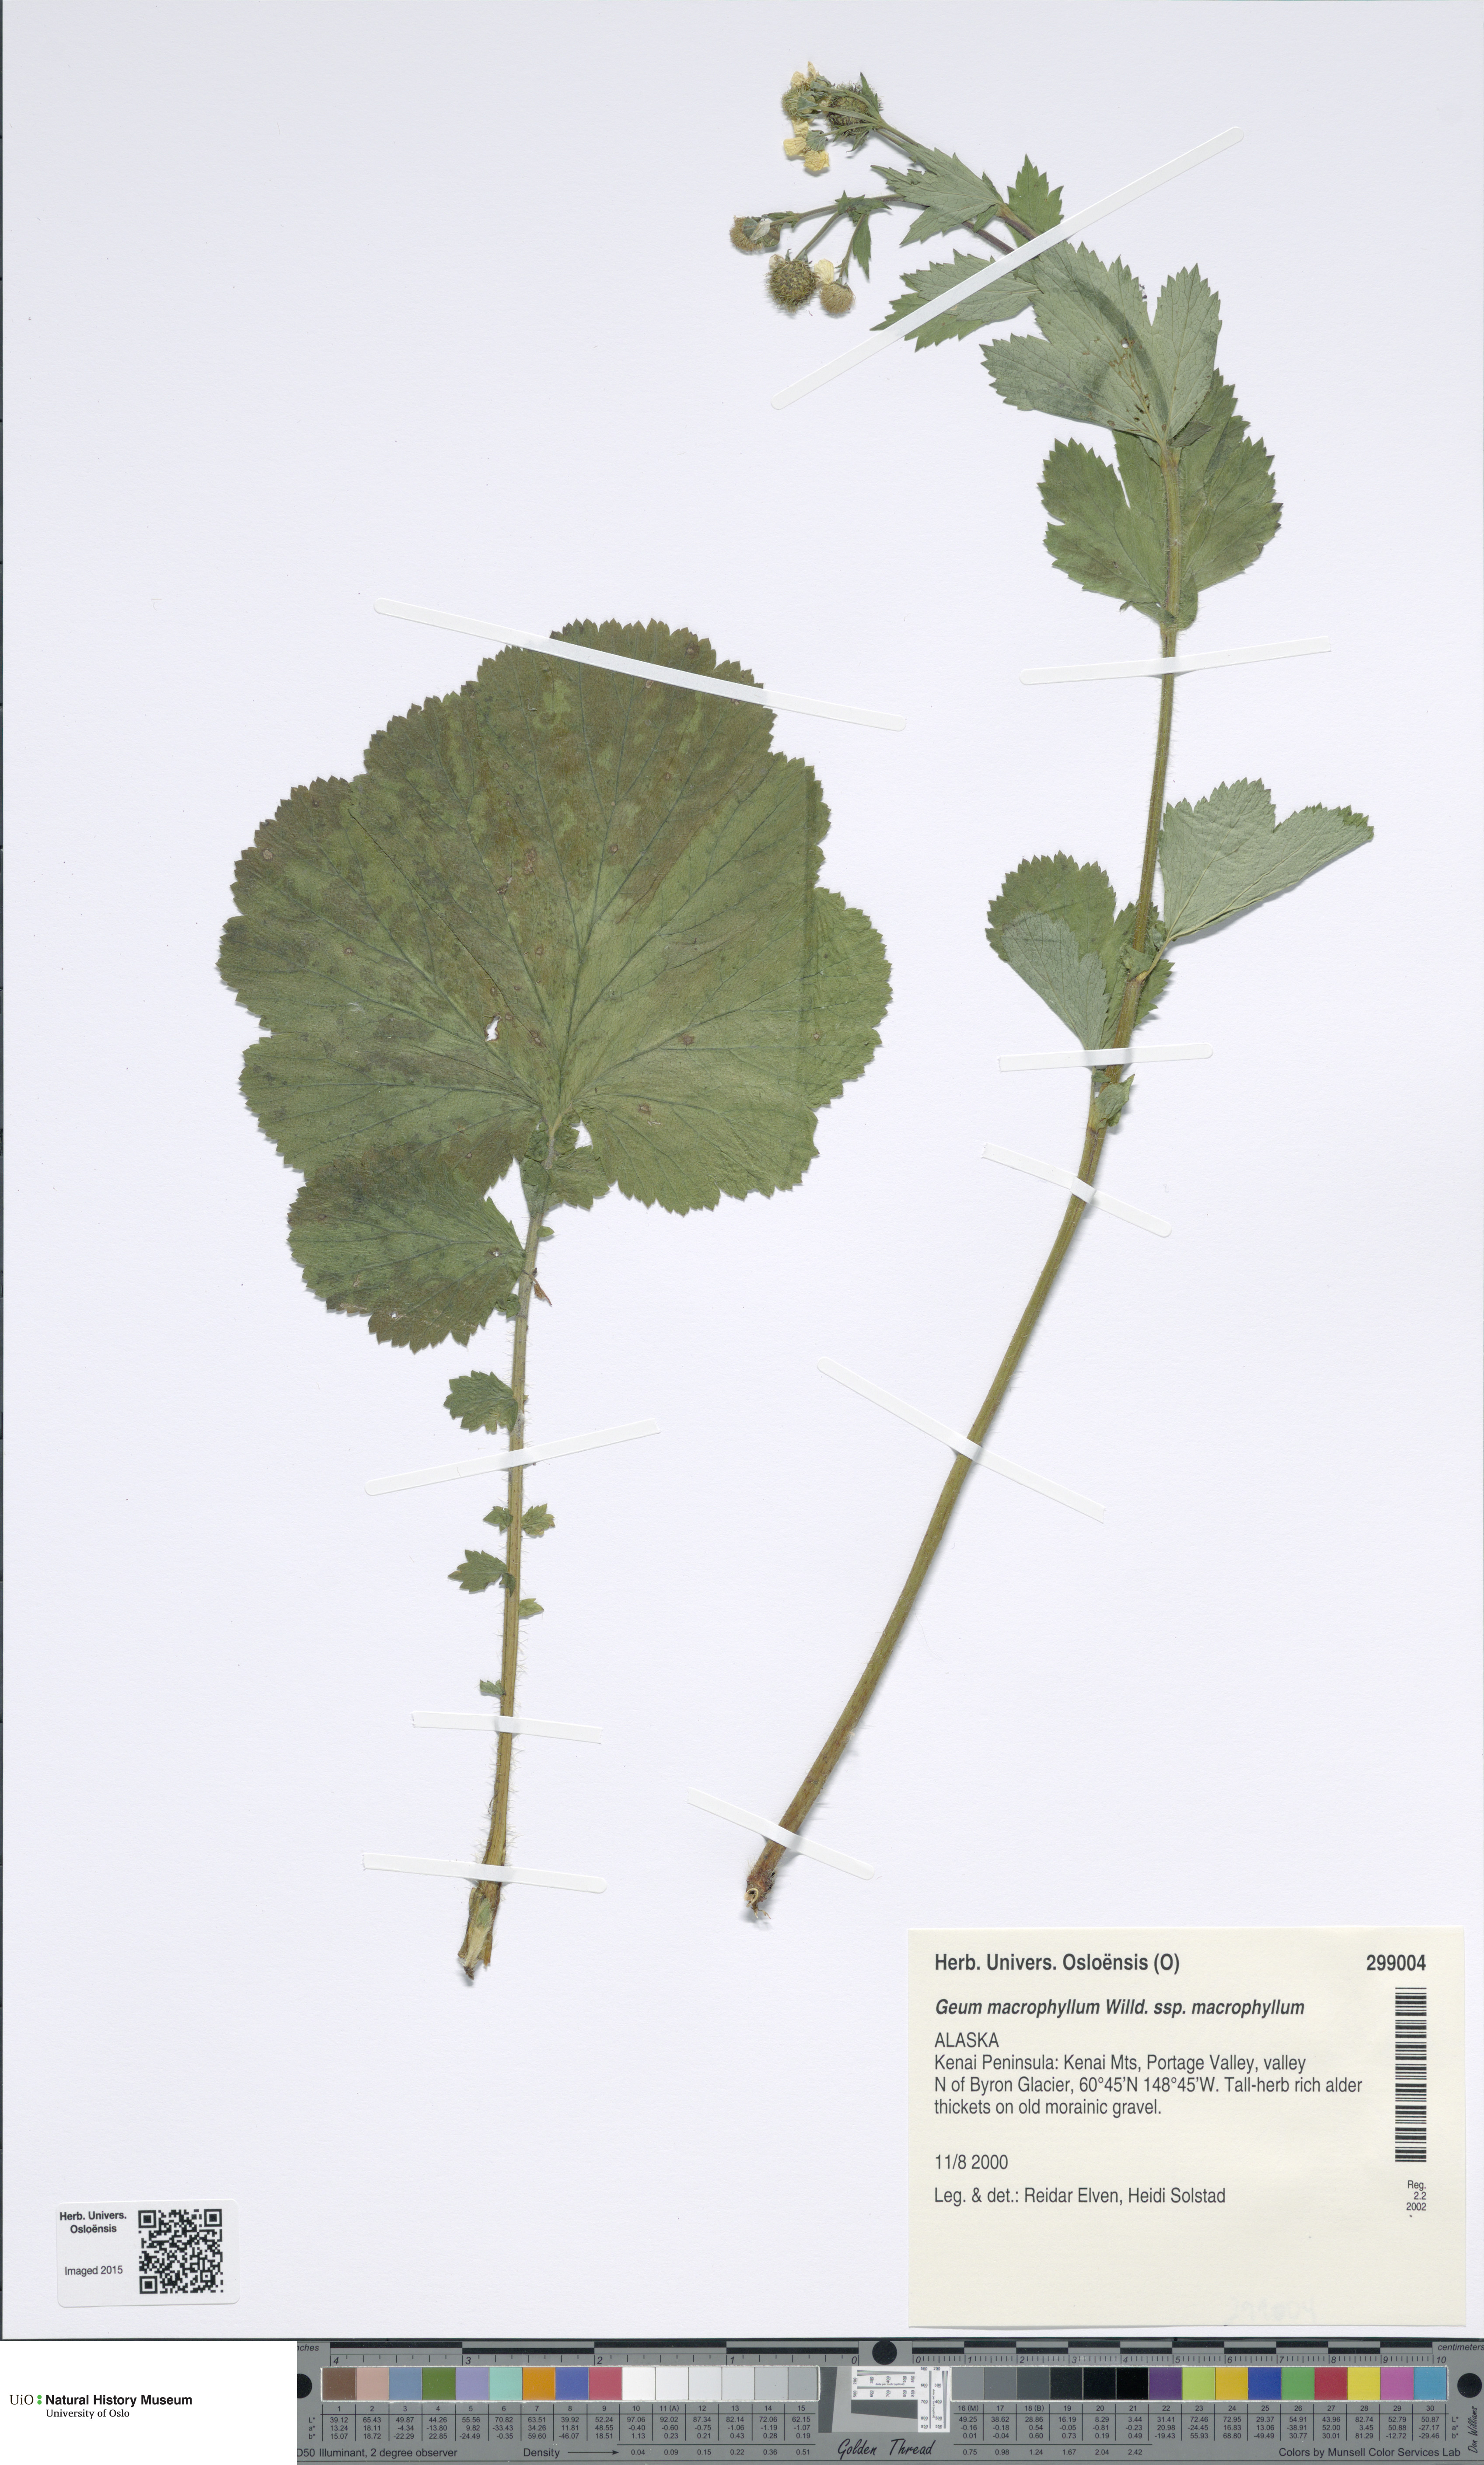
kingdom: Plantae
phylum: Tracheophyta
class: Magnoliopsida
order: Rosales
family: Rosaceae
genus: Geum
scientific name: Geum macrophyllum
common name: Large-leaved avens
